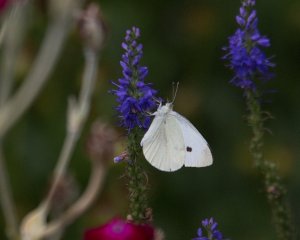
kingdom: Animalia
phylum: Arthropoda
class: Insecta
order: Lepidoptera
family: Pieridae
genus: Pieris
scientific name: Pieris rapae
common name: Cabbage White
